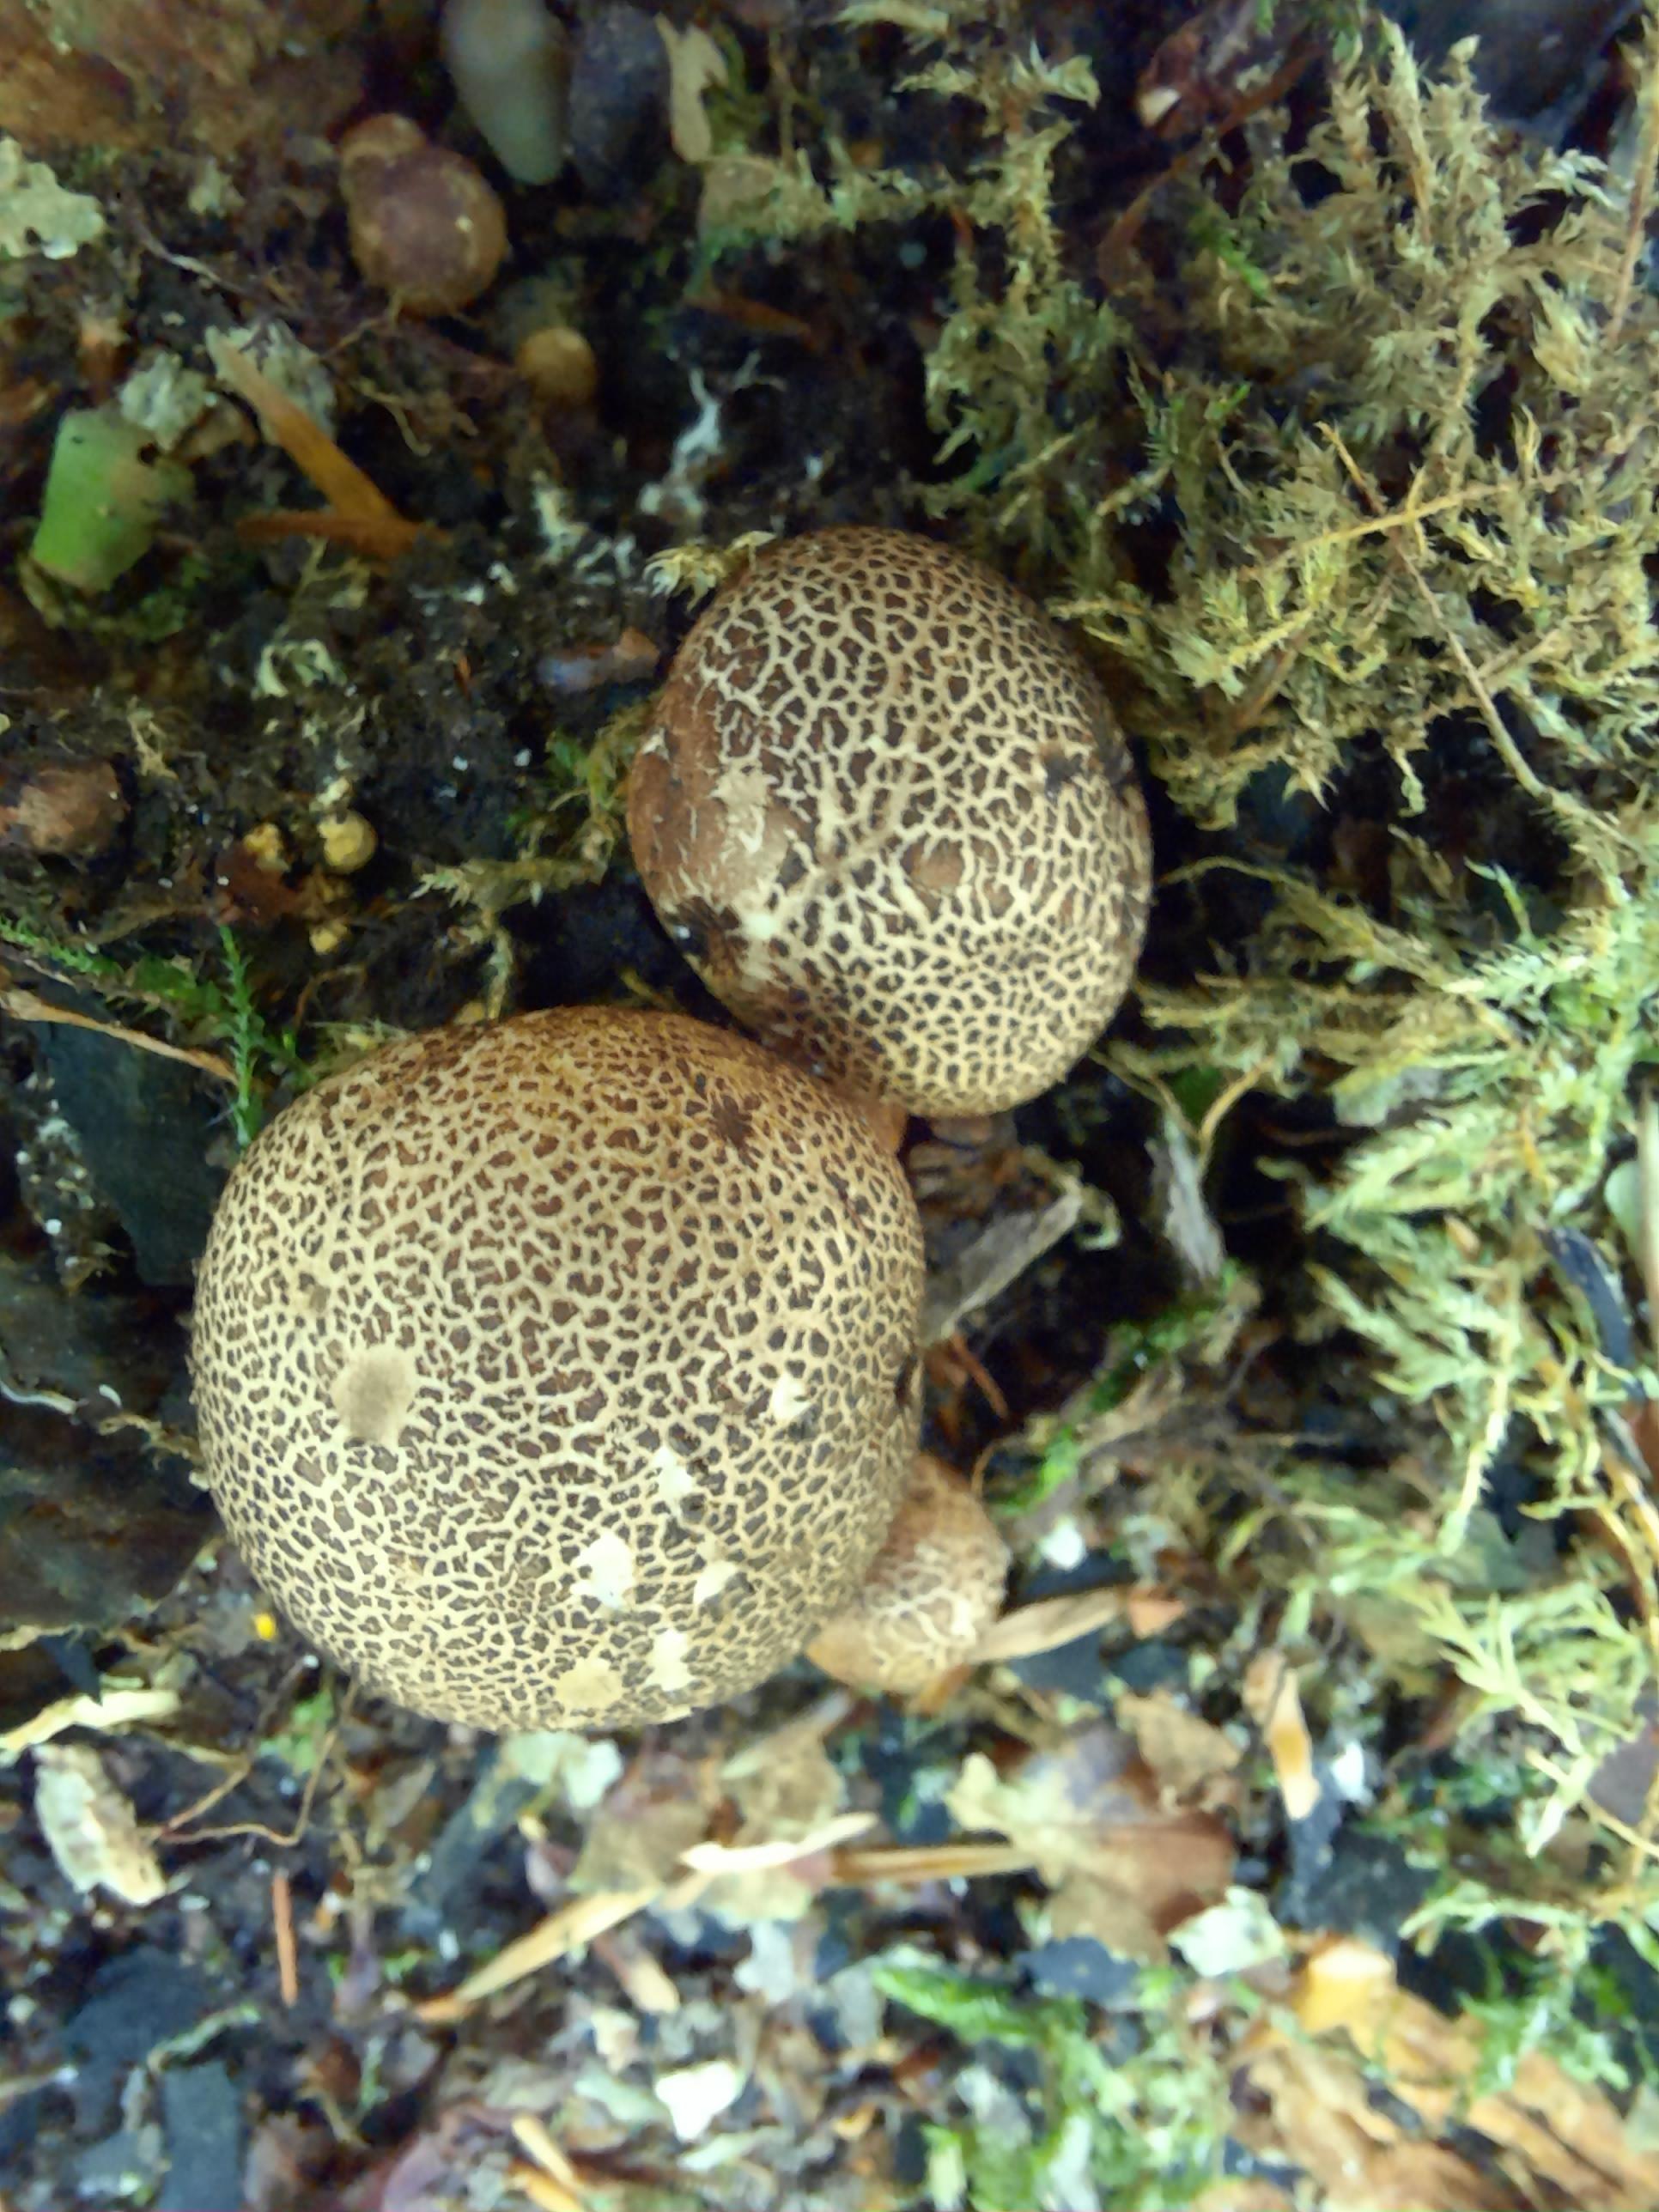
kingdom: Fungi
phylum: Basidiomycota
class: Agaricomycetes
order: Boletales
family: Sclerodermataceae
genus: Scleroderma
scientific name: Scleroderma areolatum
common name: plettet bruskbold
